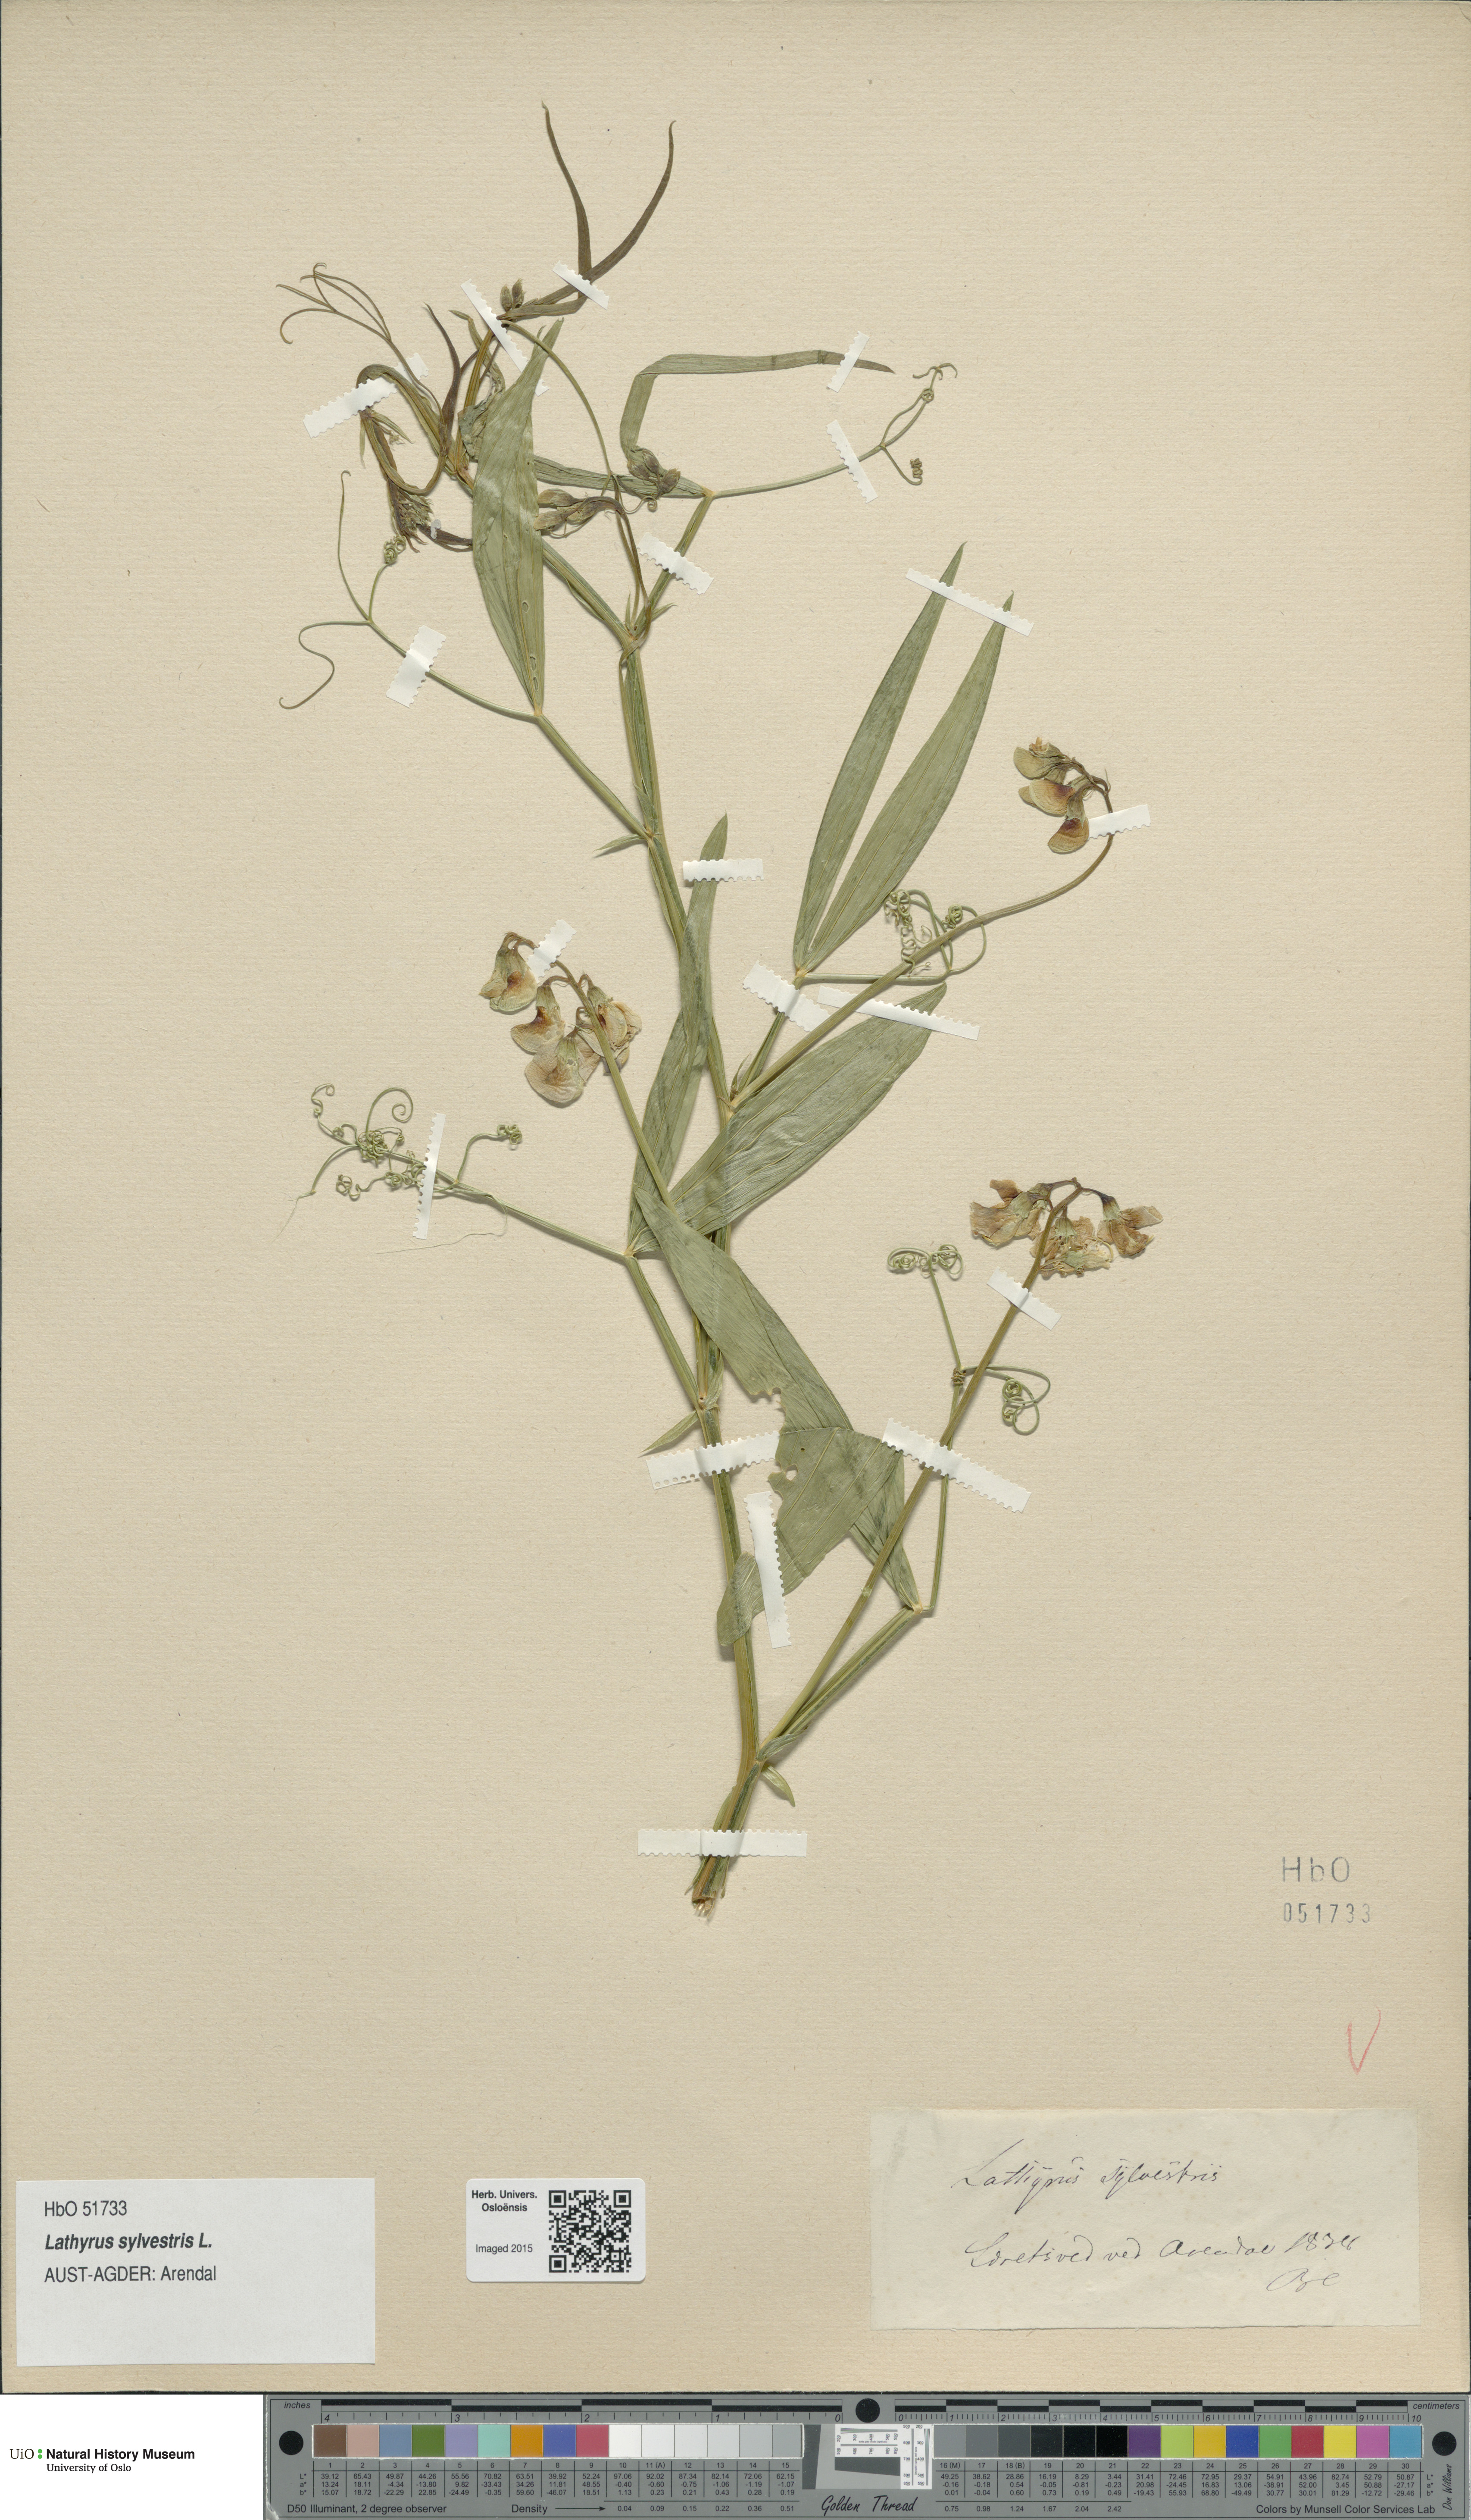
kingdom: Plantae
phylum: Tracheophyta
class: Magnoliopsida
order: Fabales
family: Fabaceae
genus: Lathyrus
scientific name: Lathyrus sylvestris
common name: Flat pea
